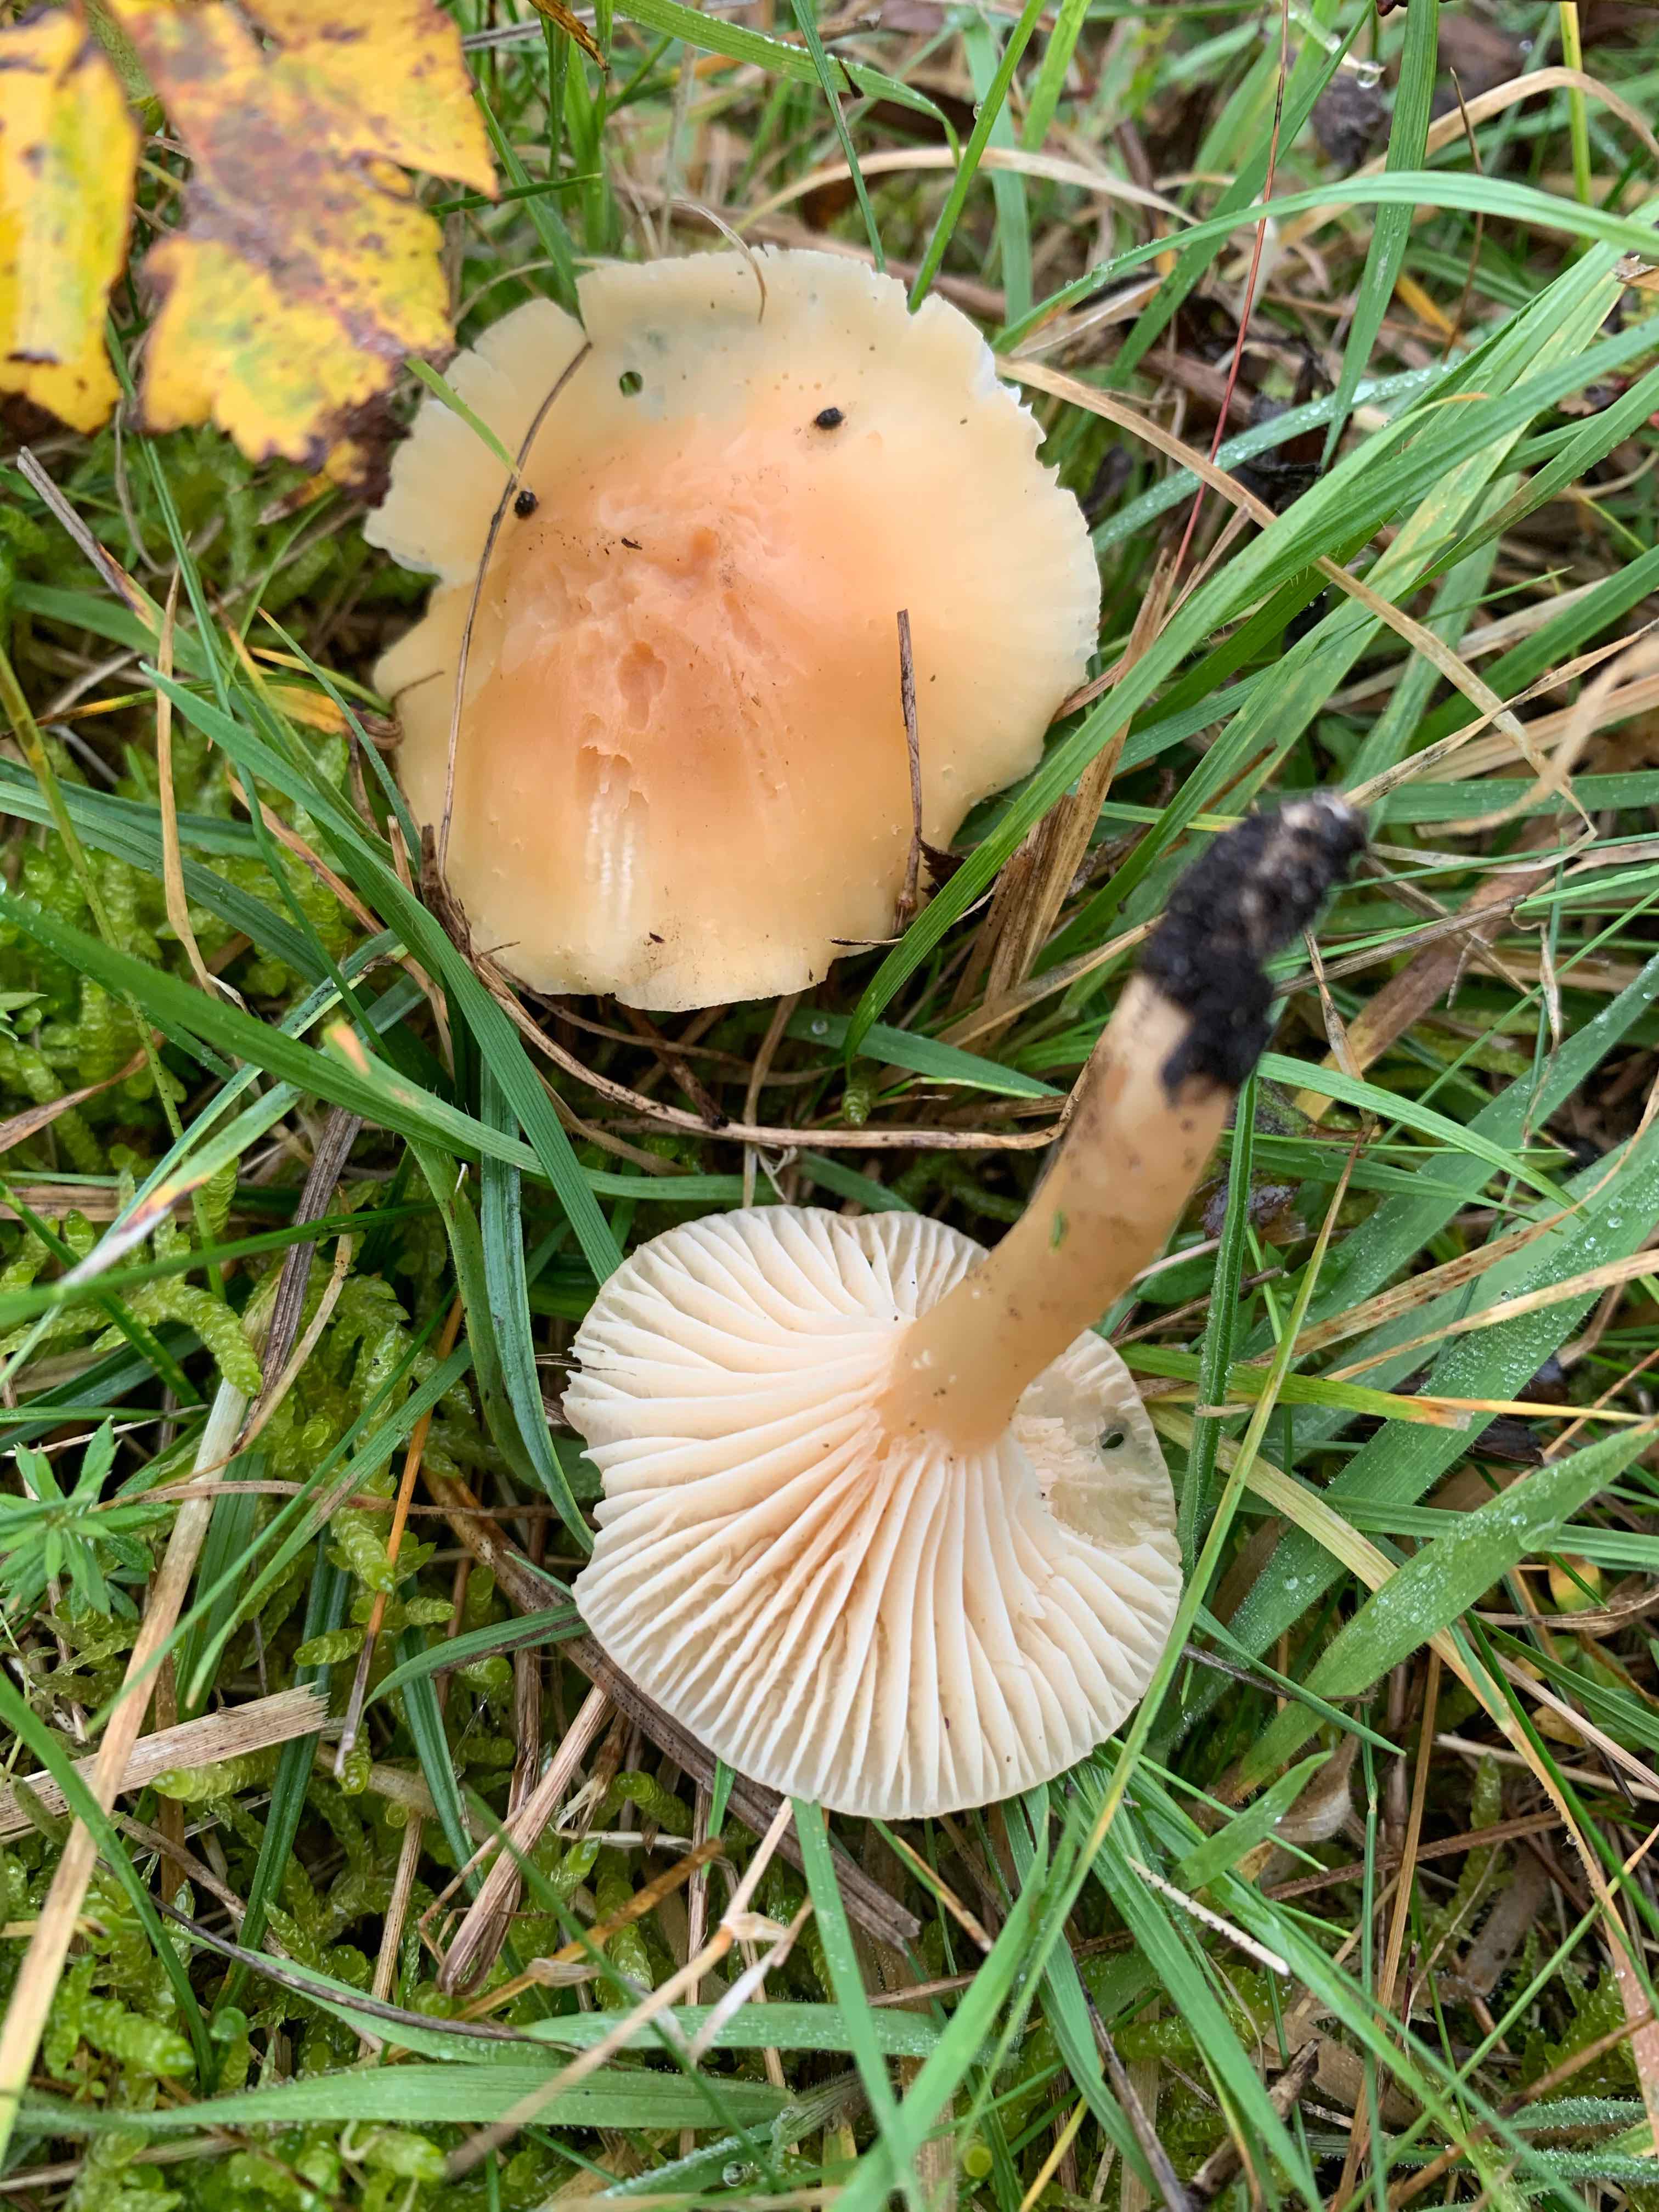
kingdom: Fungi
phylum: Basidiomycota
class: Agaricomycetes
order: Agaricales
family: Hygrophoraceae
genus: Cuphophyllus
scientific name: Cuphophyllus pratensis
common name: eng-vokshat
